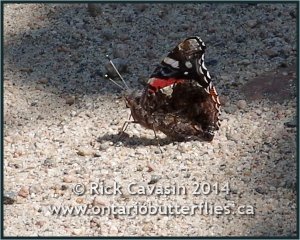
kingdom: Animalia
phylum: Arthropoda
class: Insecta
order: Lepidoptera
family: Nymphalidae
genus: Vanessa
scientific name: Vanessa atalanta
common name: Red Admiral
